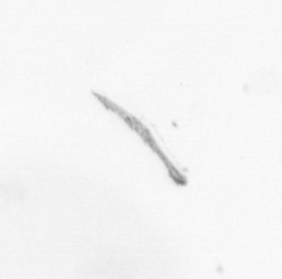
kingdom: Chromista
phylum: Ochrophyta
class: Bacillariophyceae
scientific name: Bacillariophyceae
